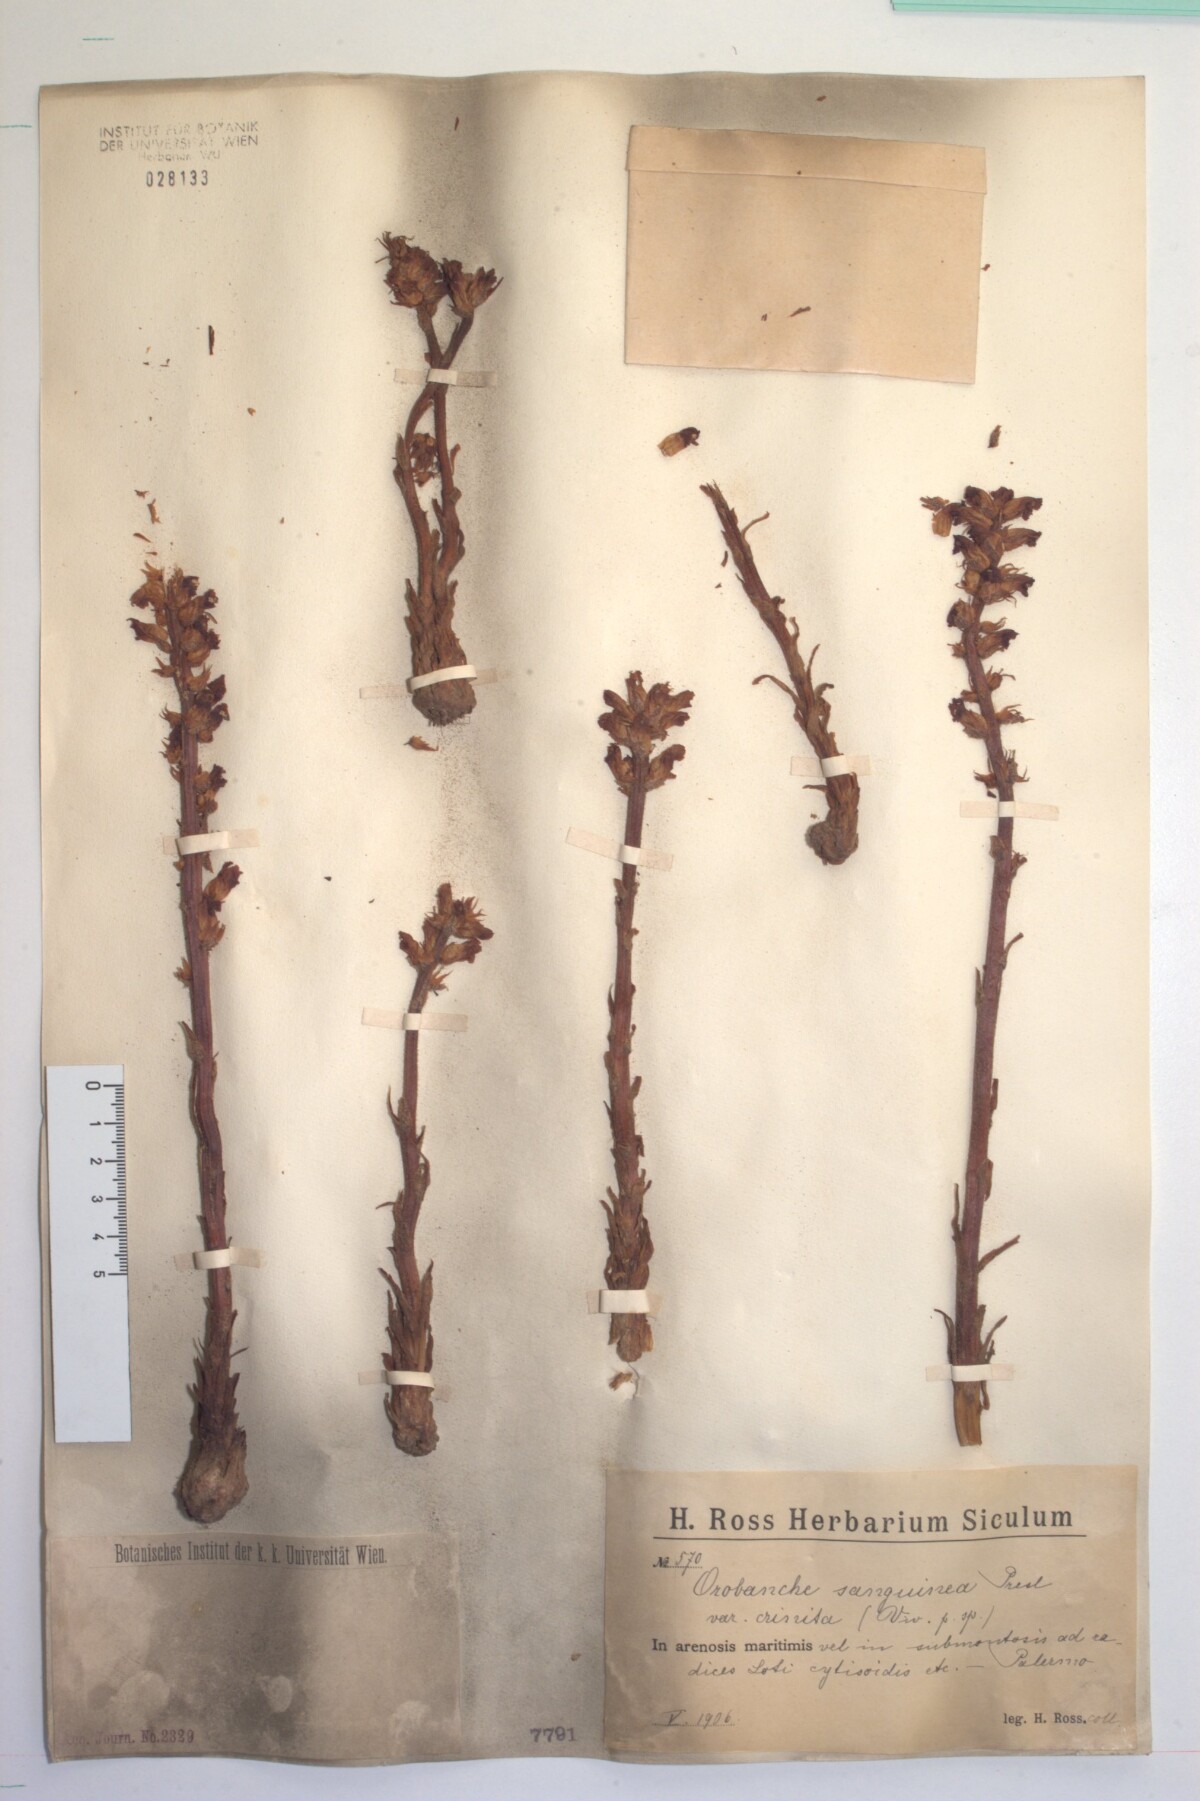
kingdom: Plantae
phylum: Tracheophyta
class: Magnoliopsida
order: Lamiales
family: Orobanchaceae
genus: Orobanche
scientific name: Orobanche sanguinea
